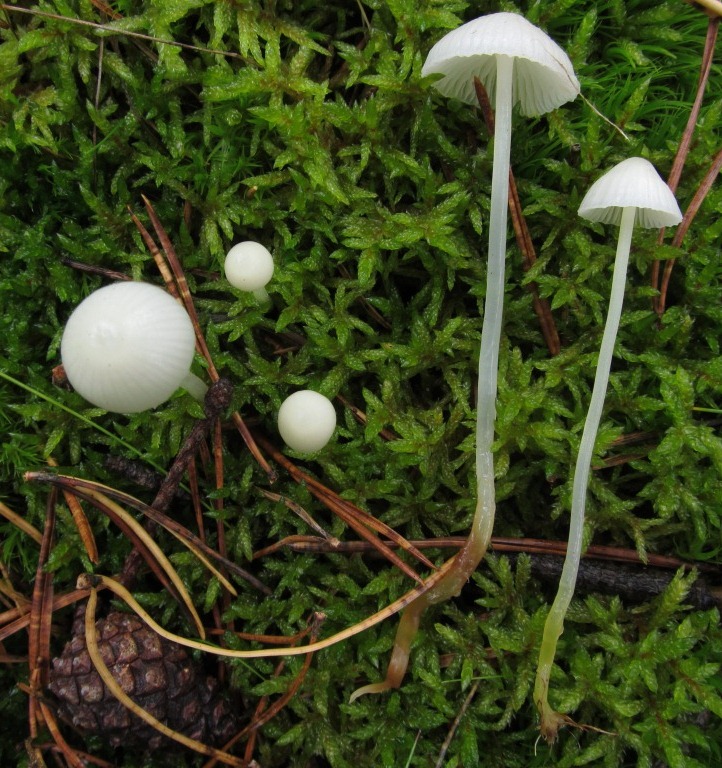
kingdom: Fungi
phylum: Basidiomycota
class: Agaricomycetes
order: Agaricales
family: Mycenaceae
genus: Mycena
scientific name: Mycena epipterygia
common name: Yellowleg bonnet
